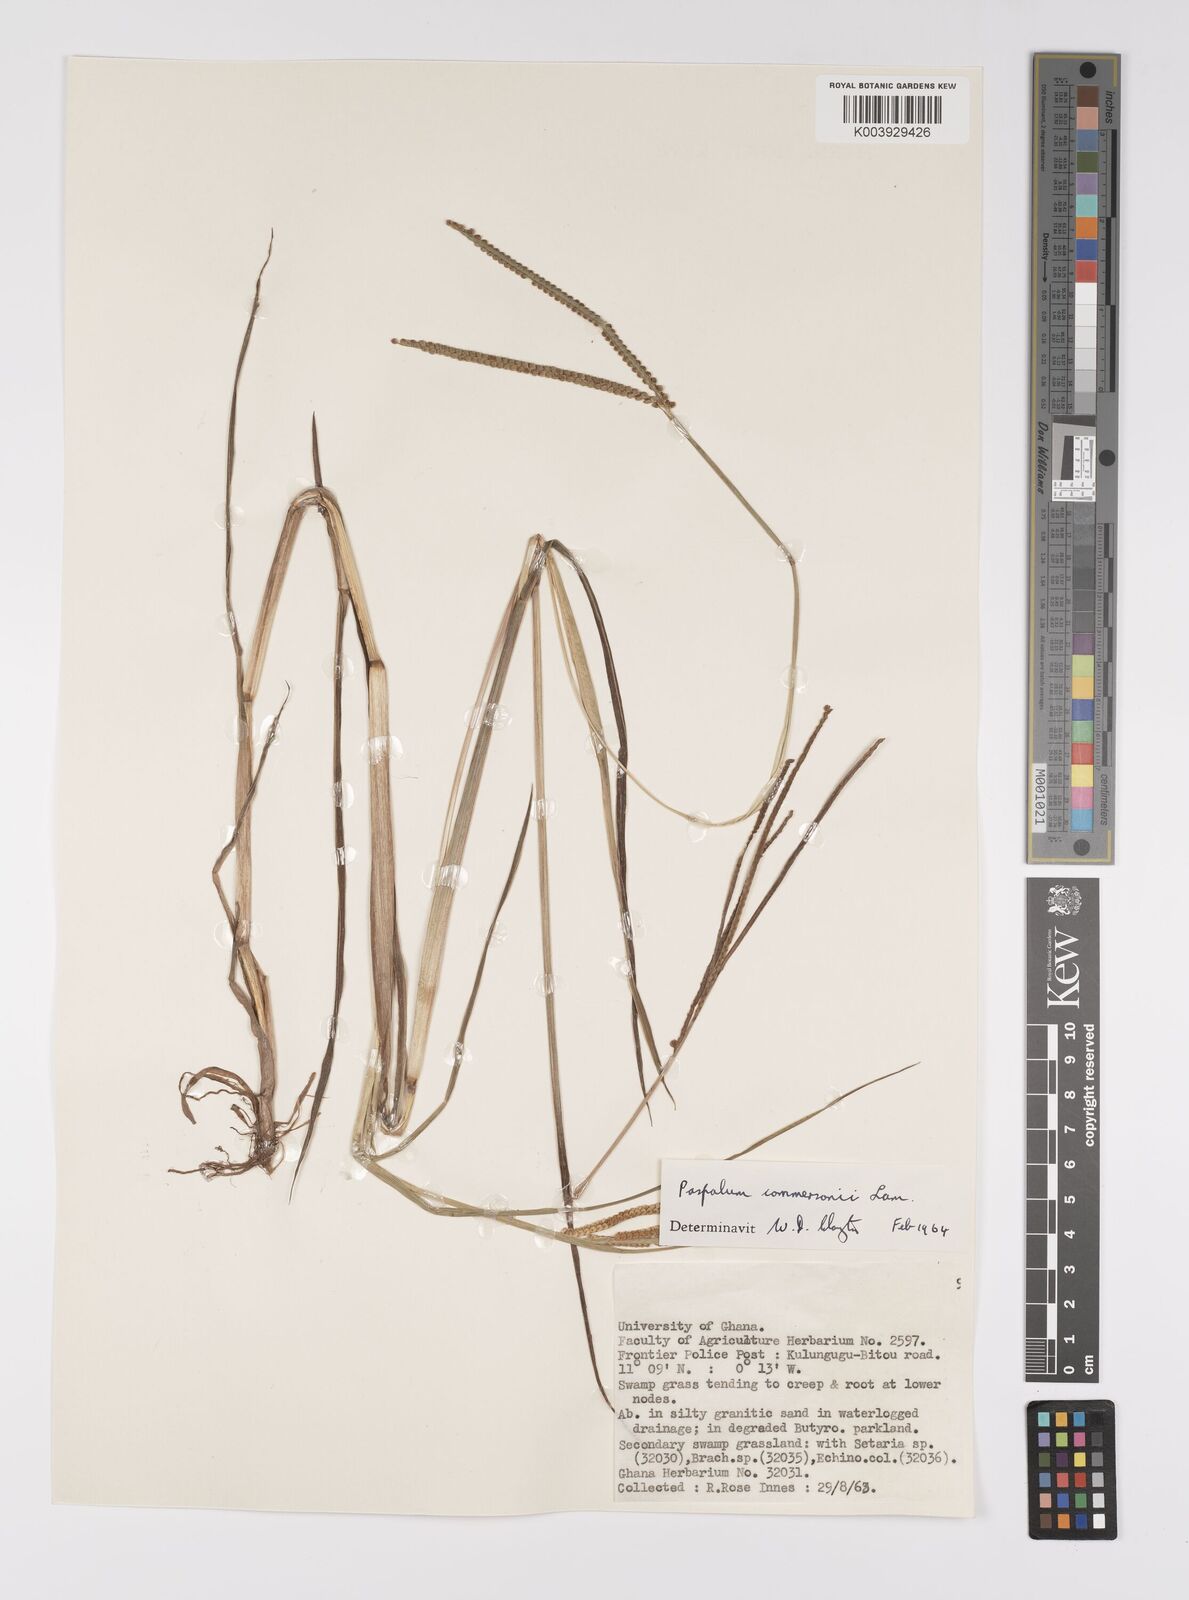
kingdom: Plantae
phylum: Tracheophyta
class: Liliopsida
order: Poales
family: Poaceae
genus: Paspalum
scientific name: Paspalum scrobiculatum
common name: Kodo millet
